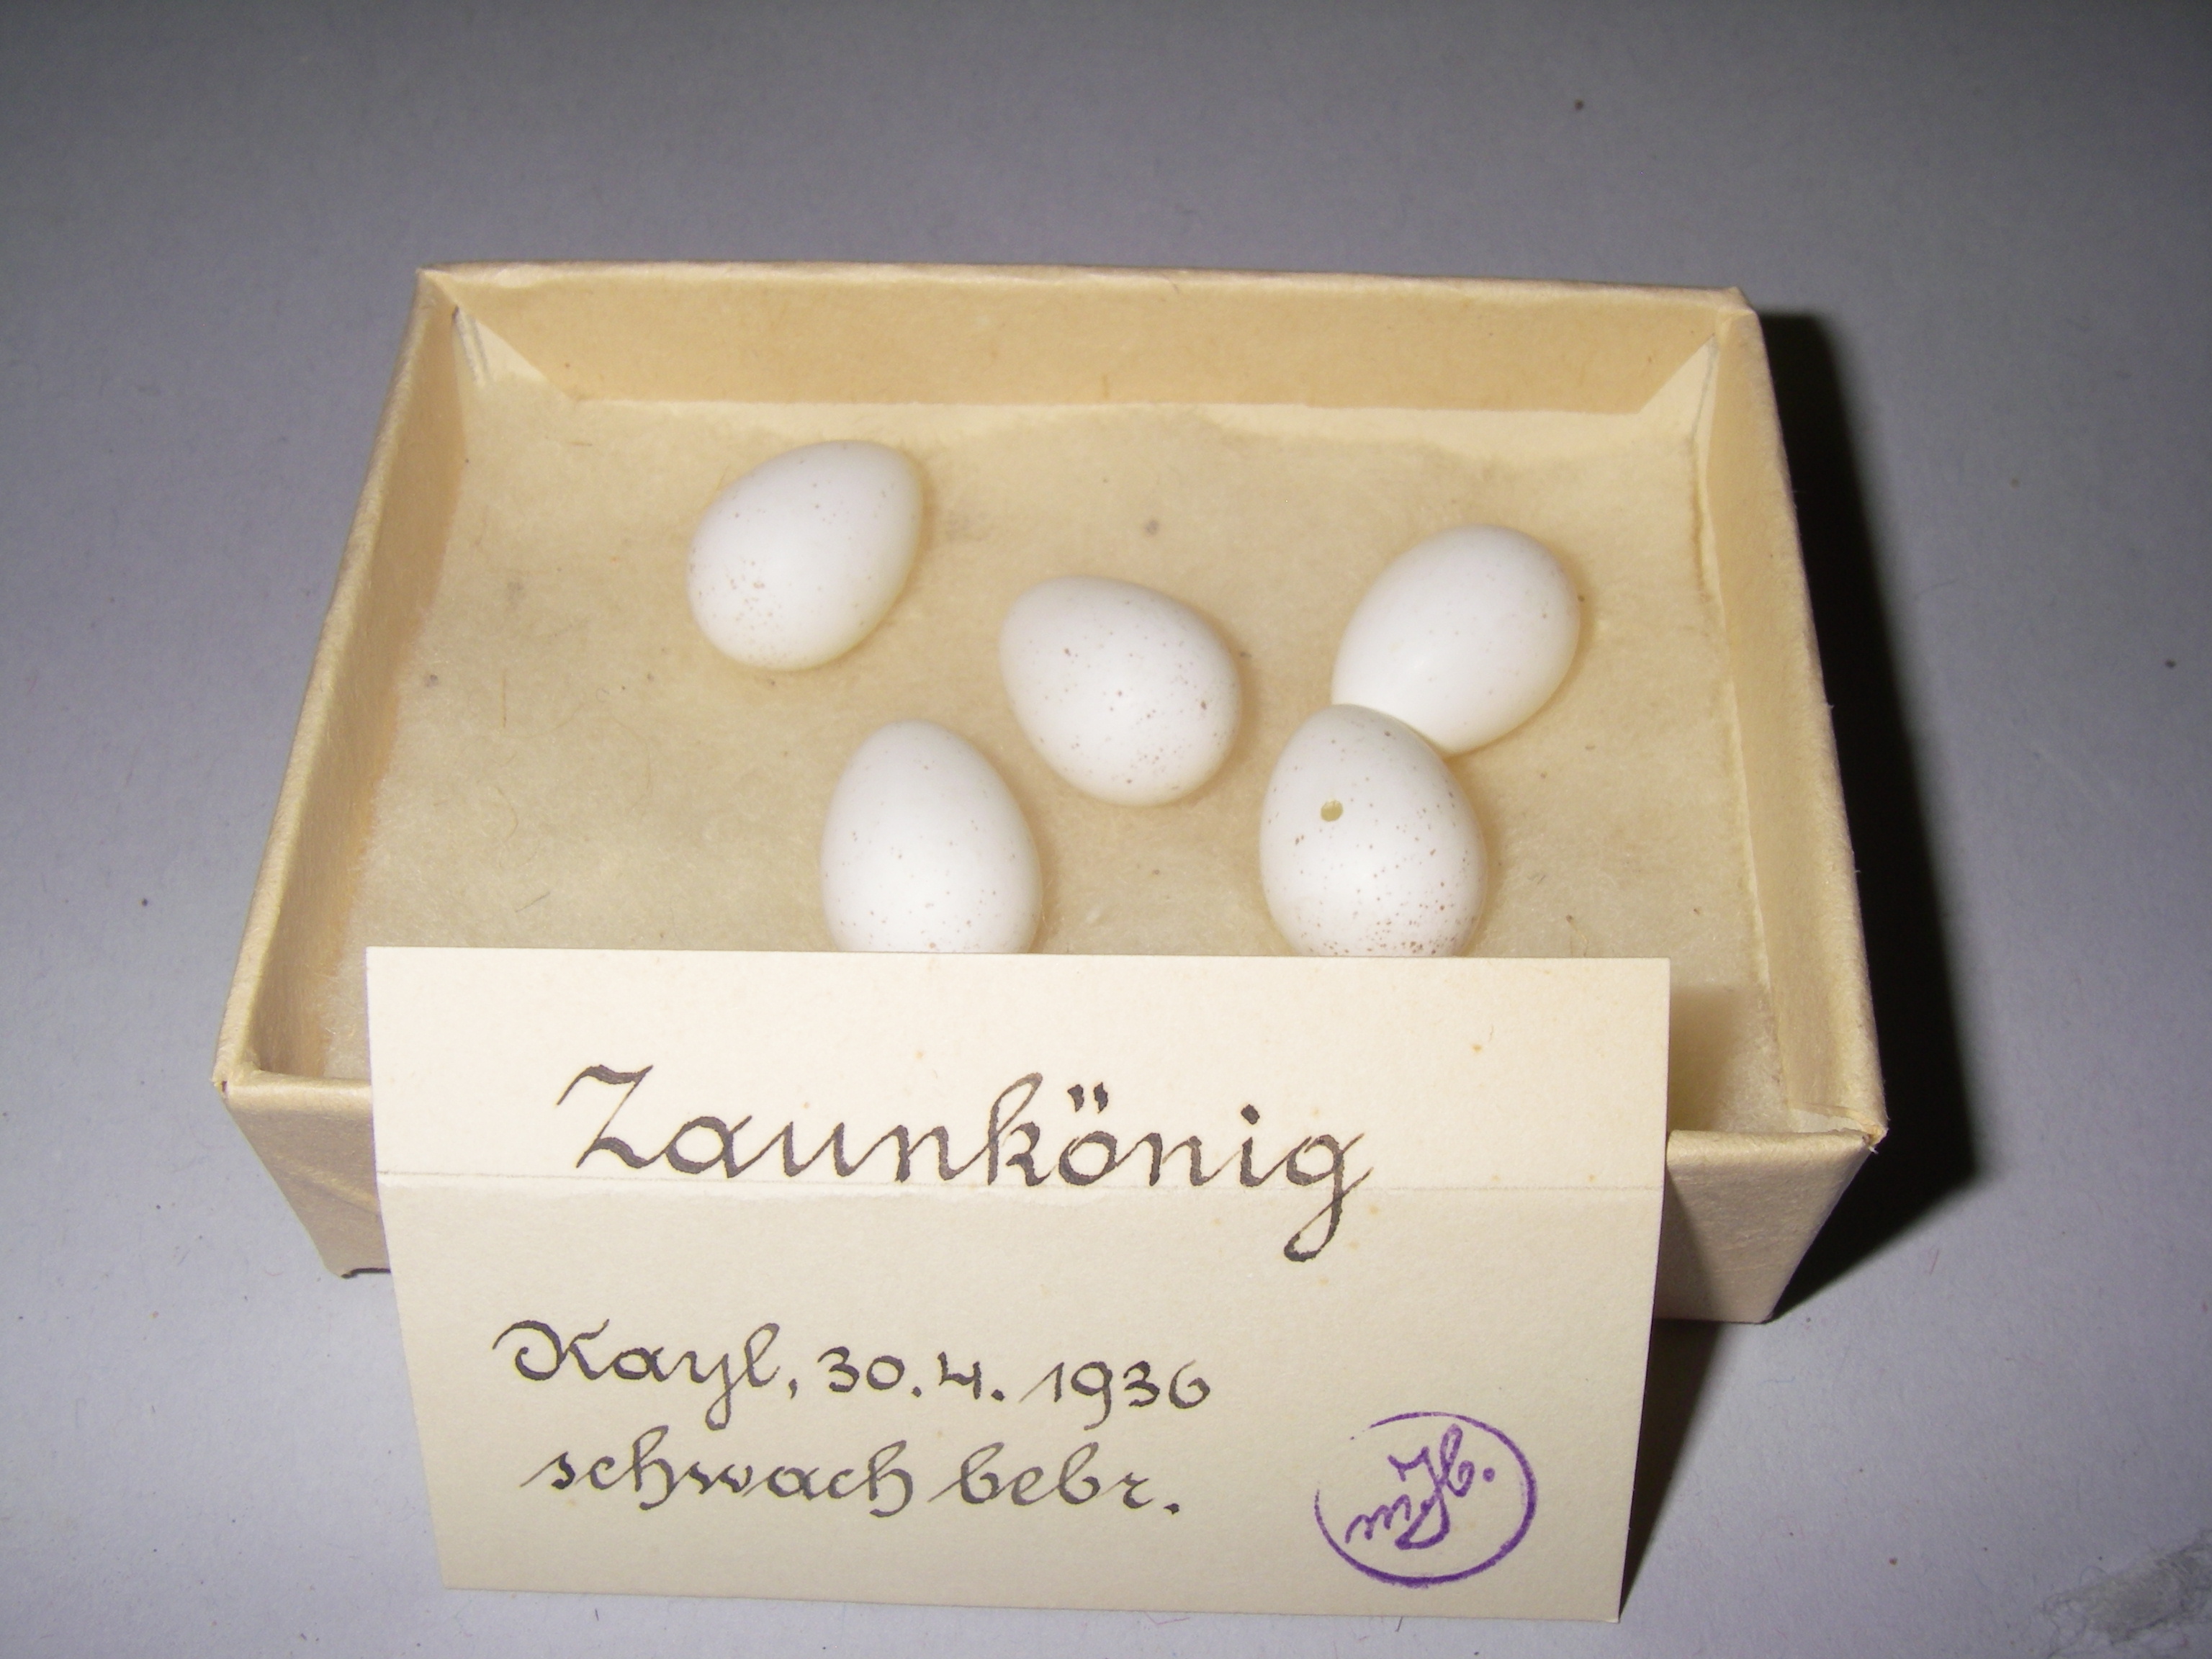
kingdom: Animalia
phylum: Chordata
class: Aves
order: Passeriformes
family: Troglodytidae
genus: Troglodytes
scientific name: Troglodytes troglodytes
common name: Eurasian wren
